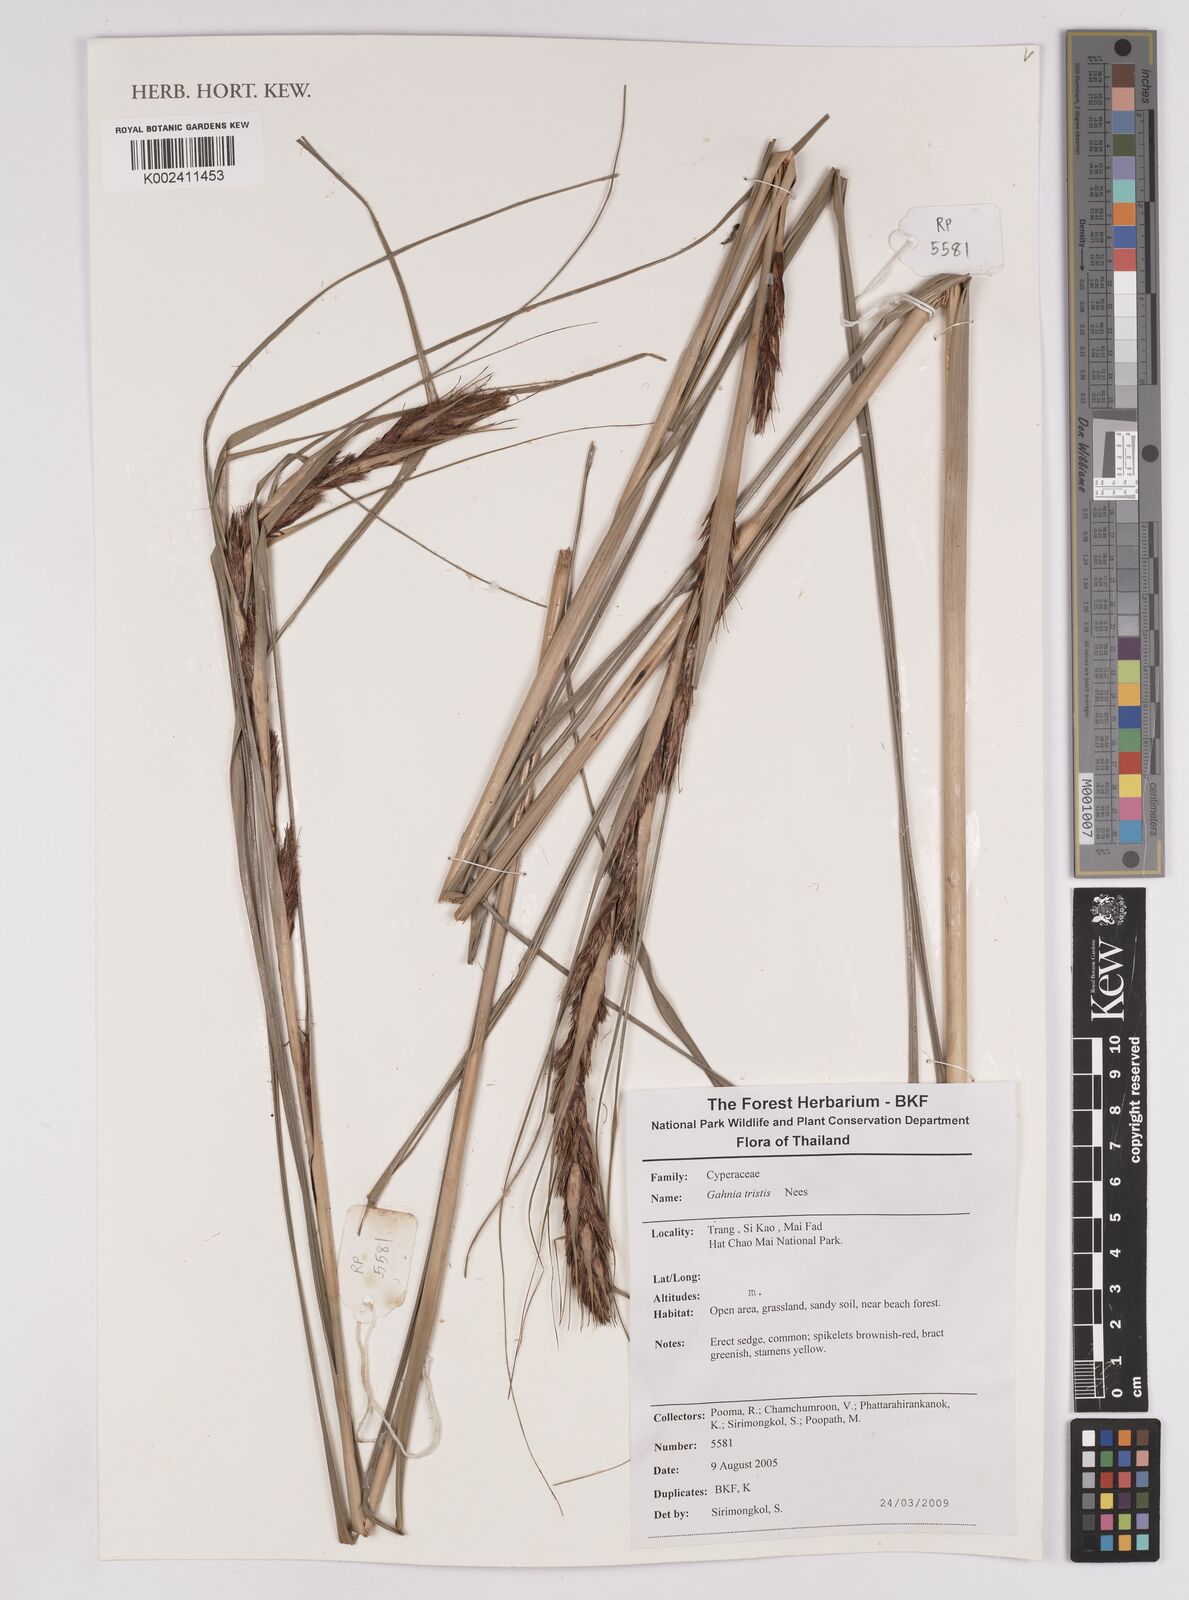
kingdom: Plantae
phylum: Tracheophyta
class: Liliopsida
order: Poales
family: Cyperaceae
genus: Gahnia
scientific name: Gahnia tristis
